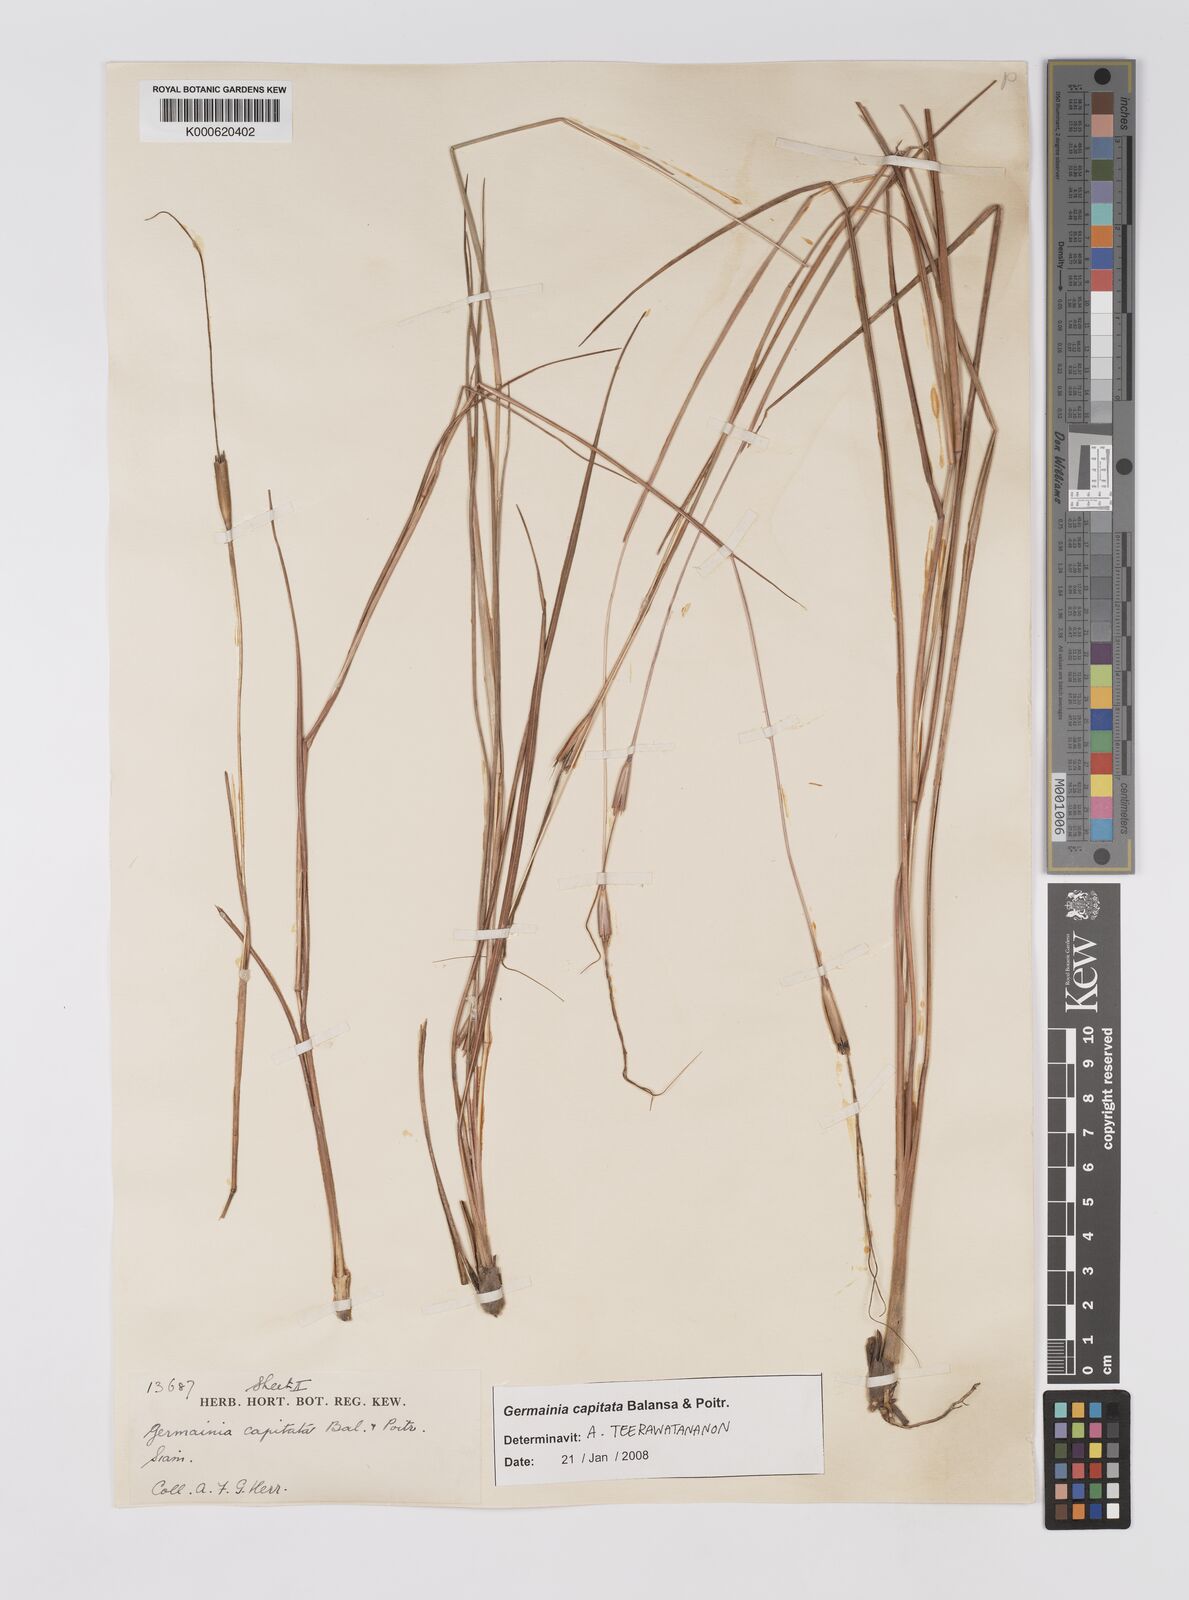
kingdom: Plantae
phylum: Tracheophyta
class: Liliopsida
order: Poales
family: Poaceae
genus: Germainia
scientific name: Germainia capitata
